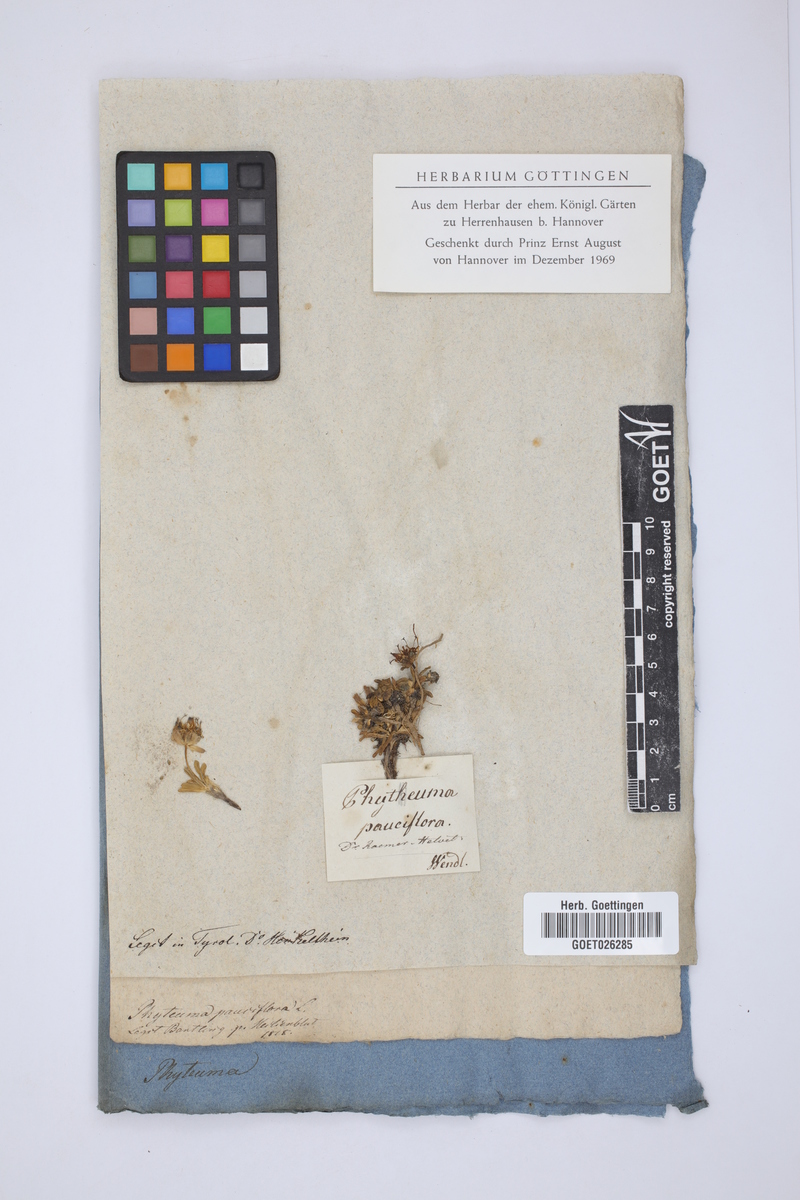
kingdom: Plantae
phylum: Tracheophyta
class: Magnoliopsida
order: Asterales
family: Campanulaceae
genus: Phyteuma
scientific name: Phyteuma globulariifolium
